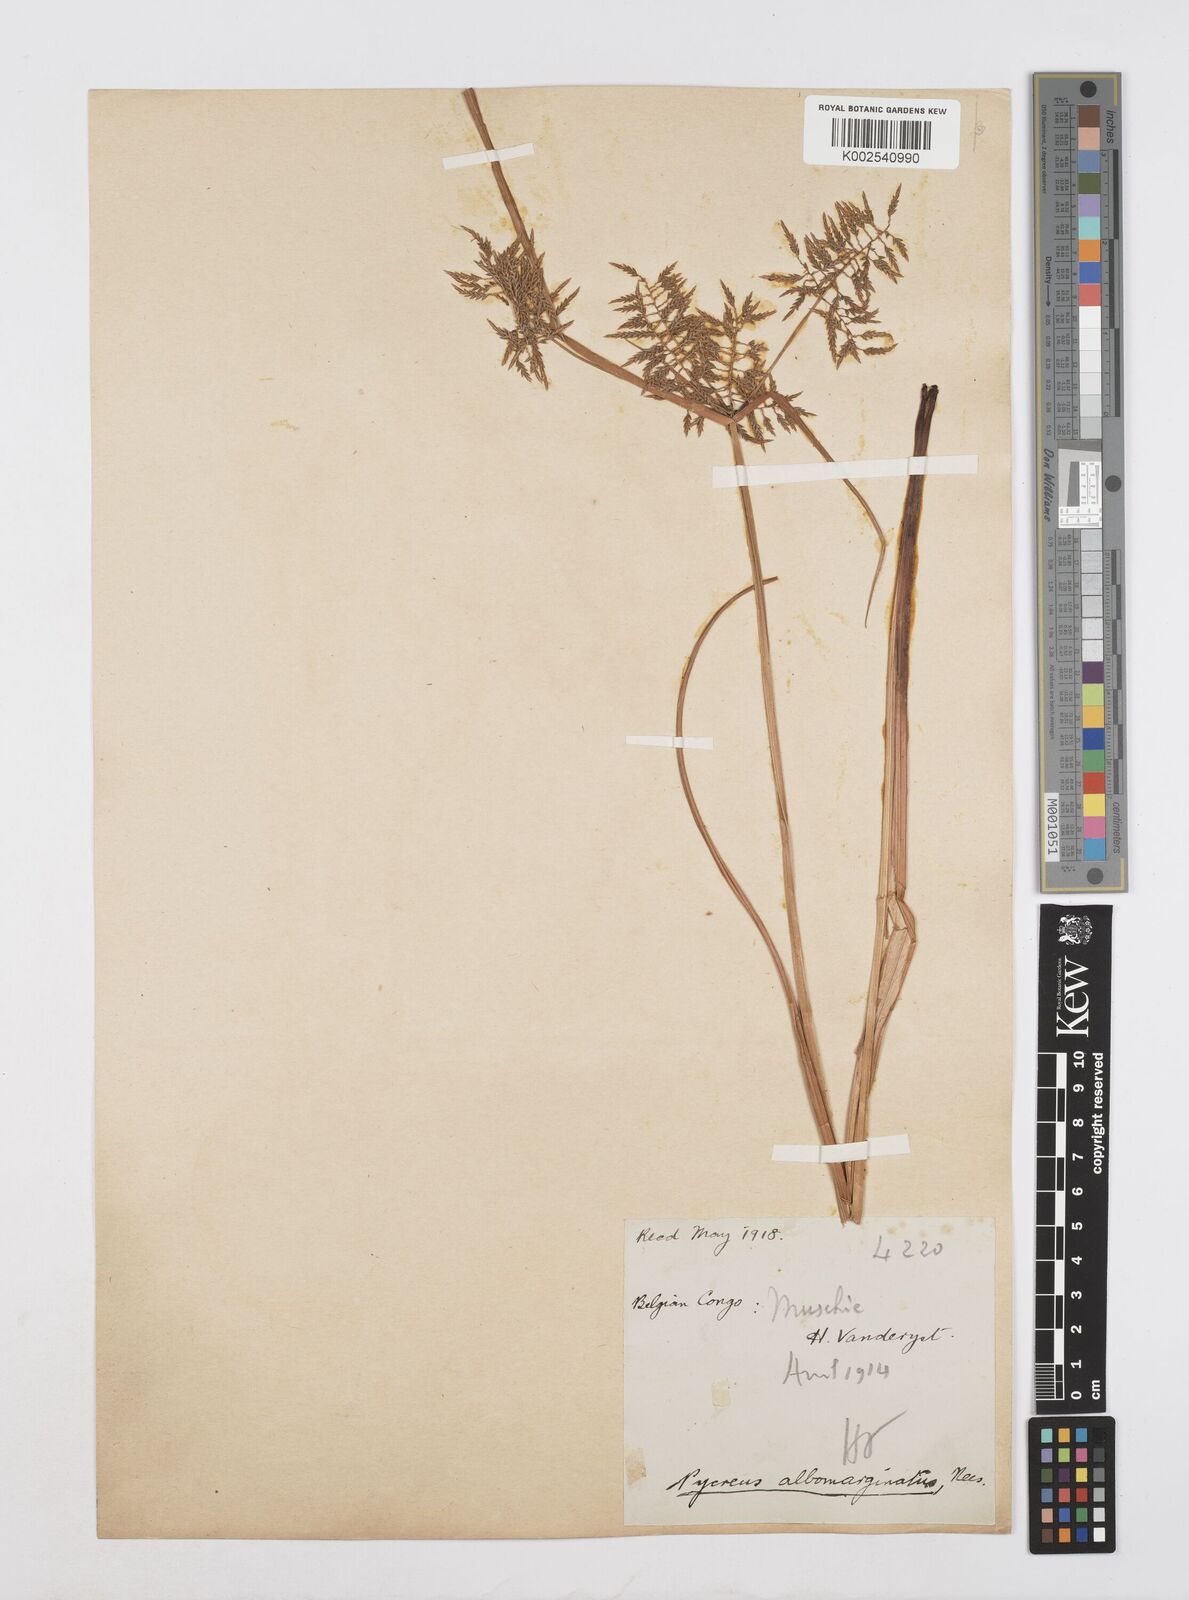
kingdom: Plantae
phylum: Tracheophyta
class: Liliopsida
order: Poales
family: Cyperaceae
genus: Cyperus
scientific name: Cyperus macrostachyos
